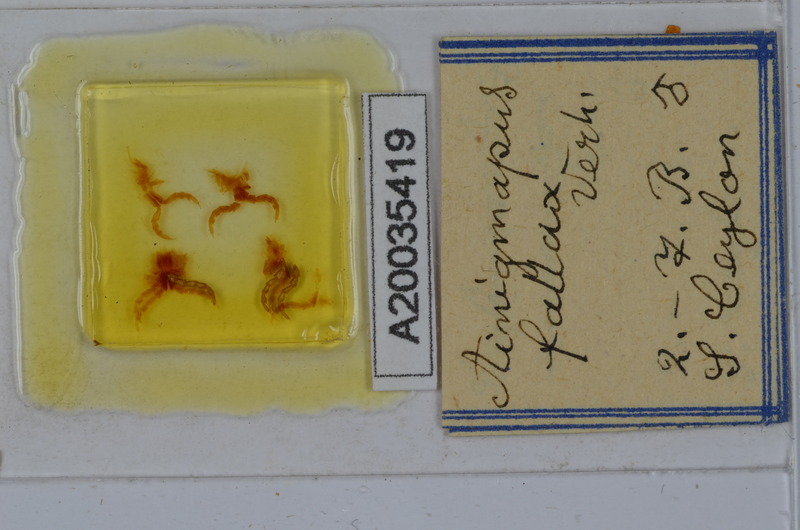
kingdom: Animalia
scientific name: Animalia
